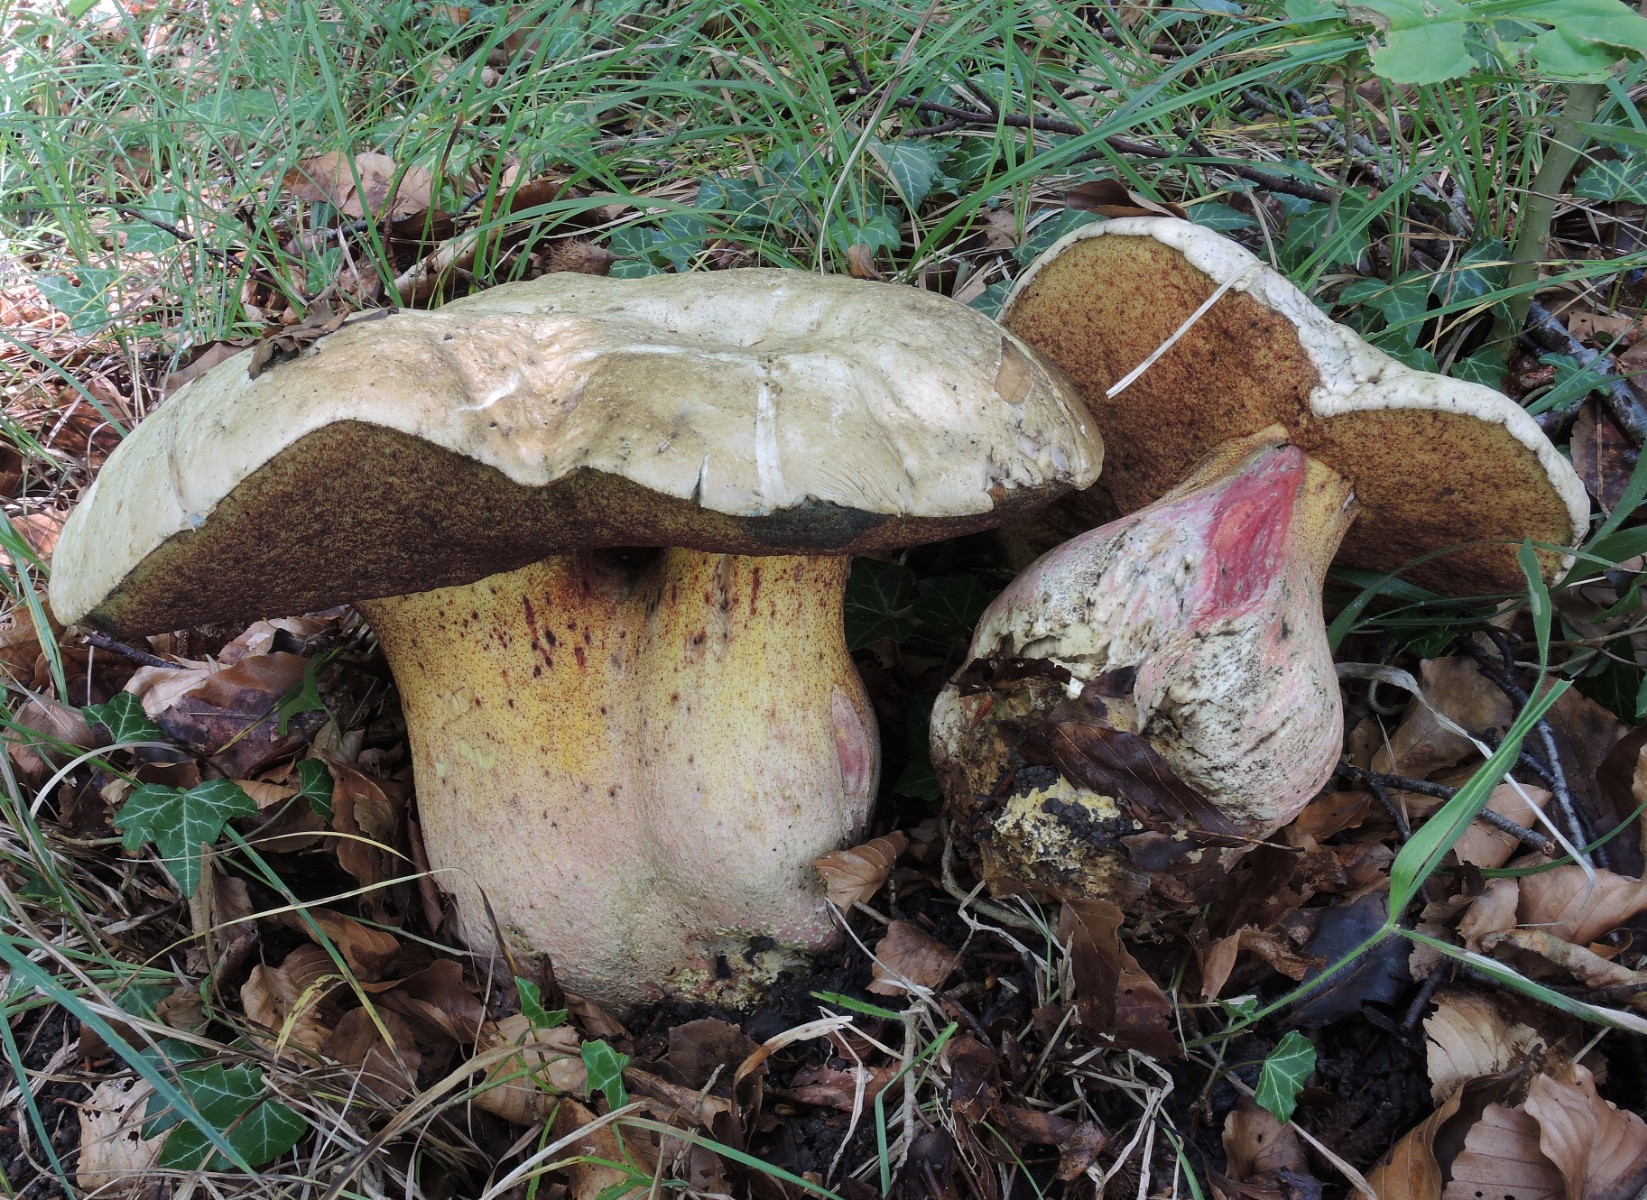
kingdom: Fungi
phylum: Basidiomycota
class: Agaricomycetes
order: Boletales
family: Boletaceae
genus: Rubroboletus
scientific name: Rubroboletus satanas
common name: Satans rørhat
